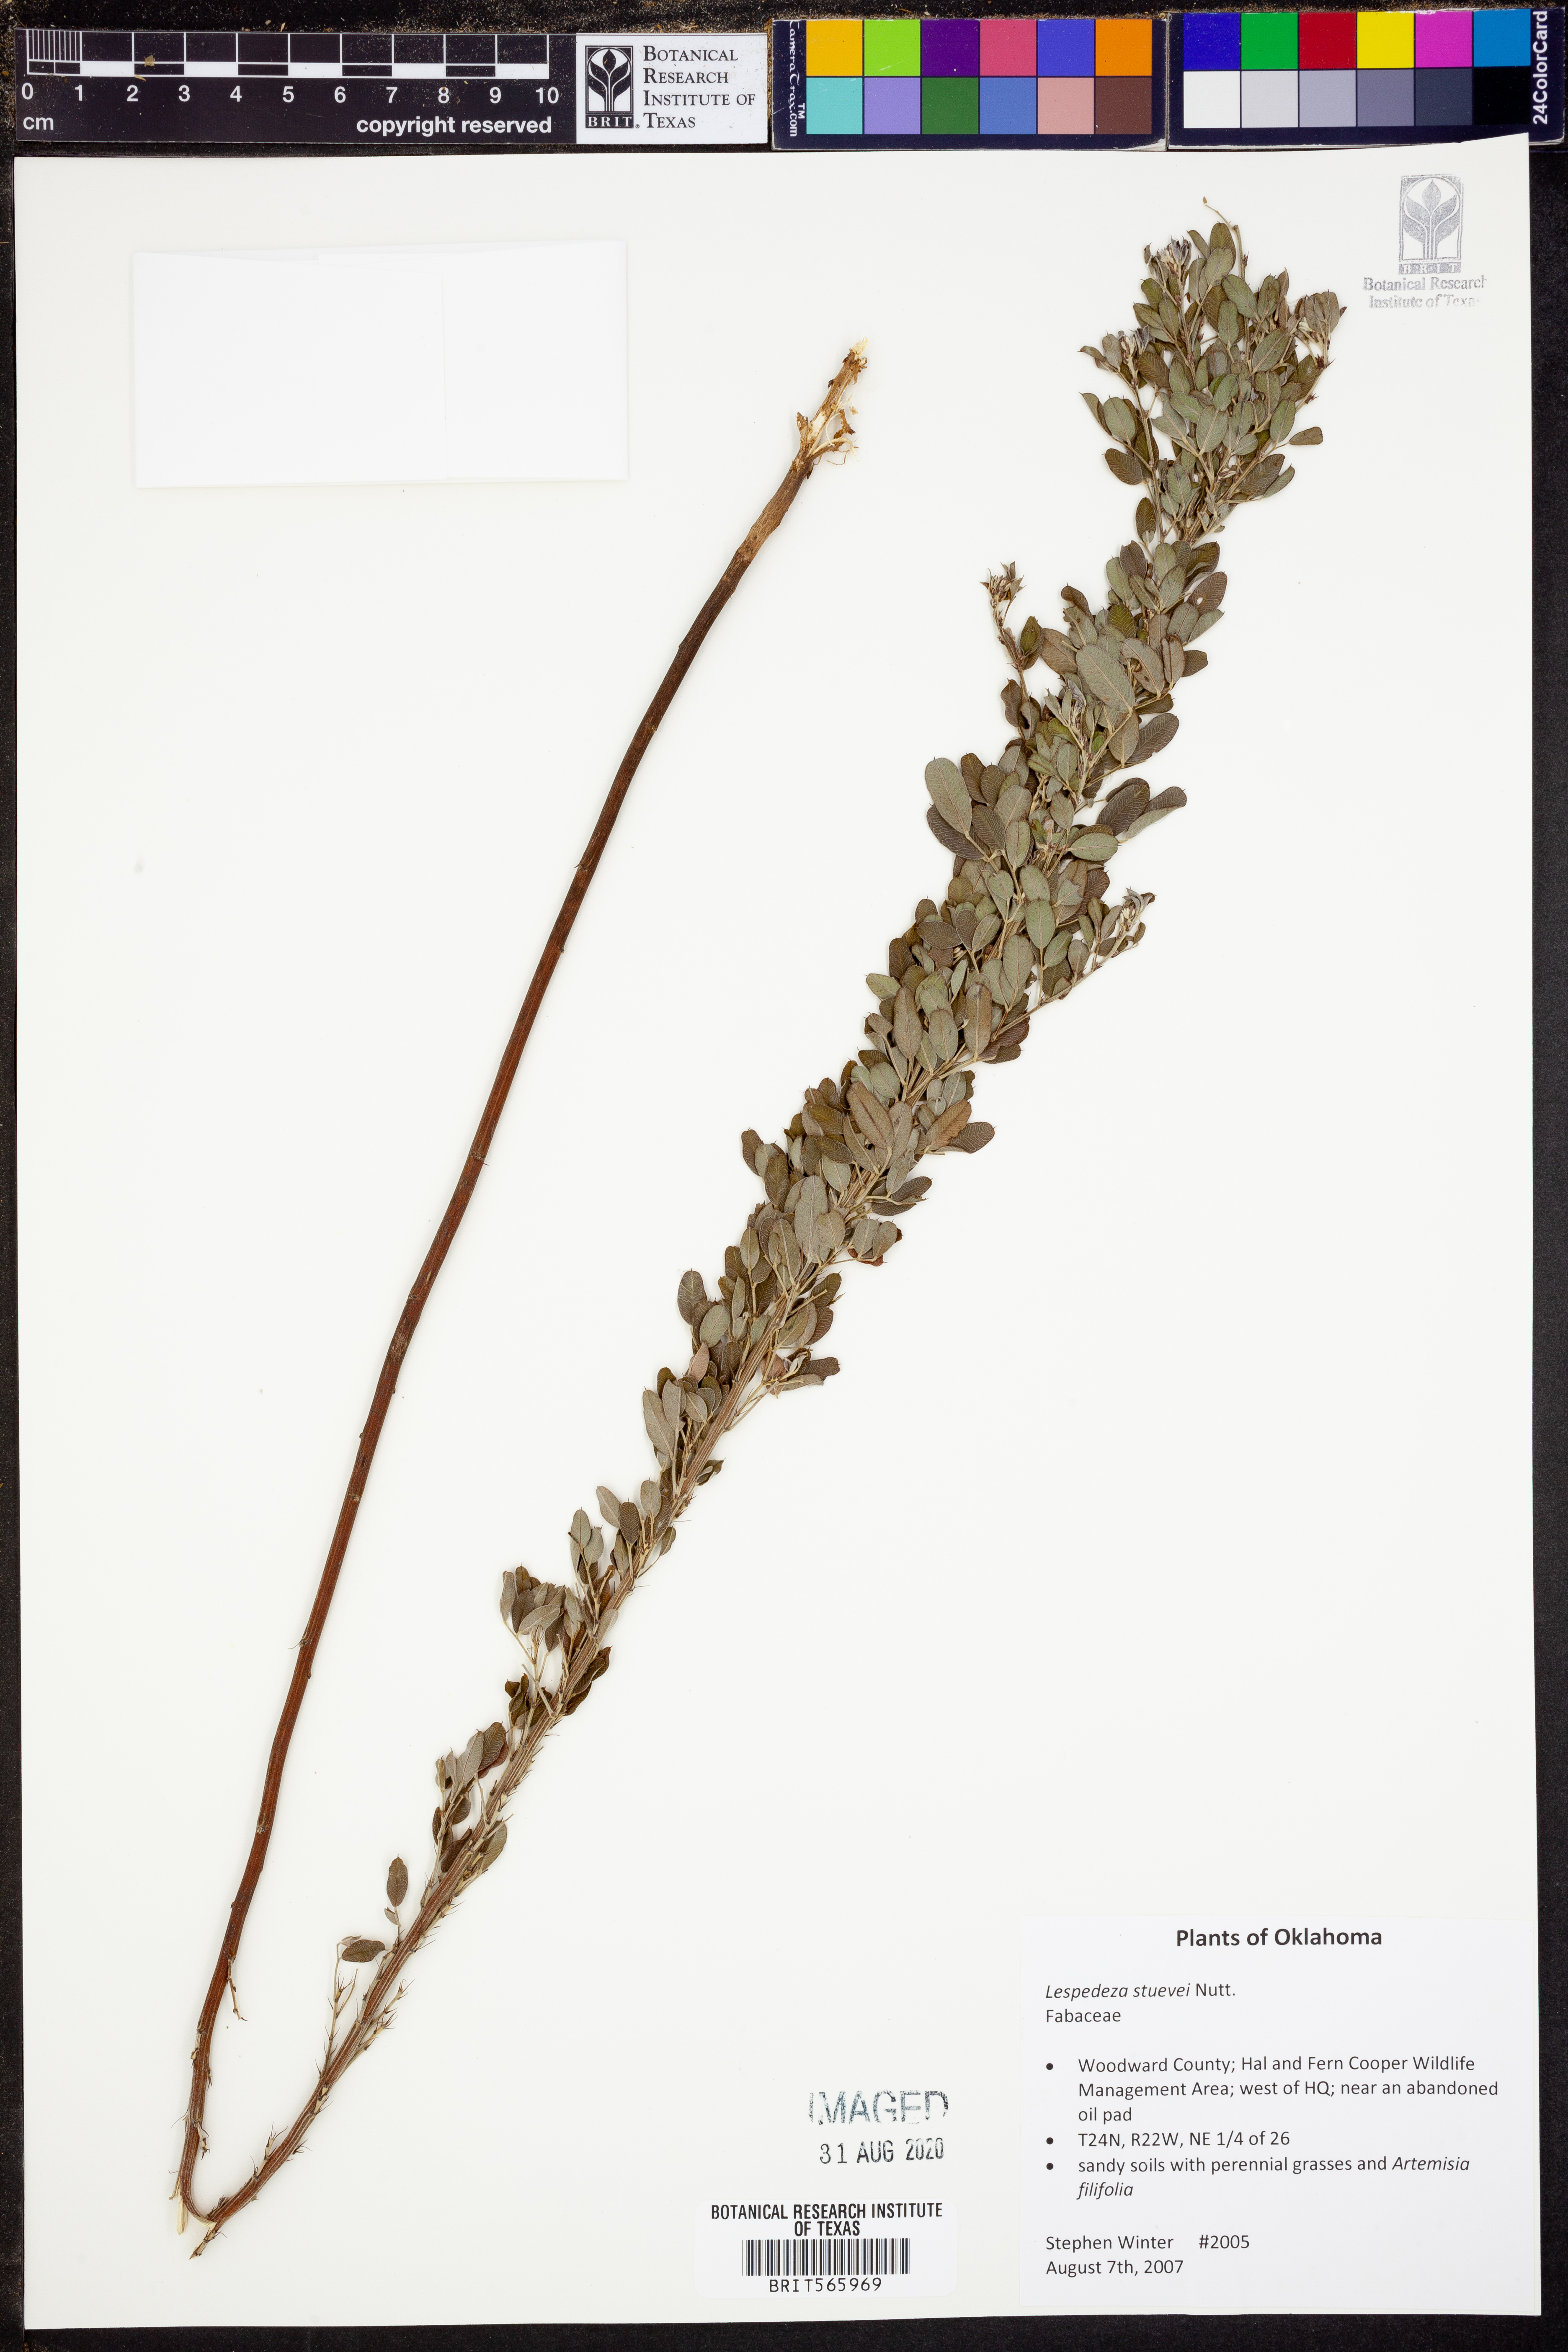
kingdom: Plantae
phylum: Tracheophyta
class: Magnoliopsida
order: Fabales
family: Fabaceae
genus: Lespedeza
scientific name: Lespedeza stuevei
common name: Tall bush-clover
